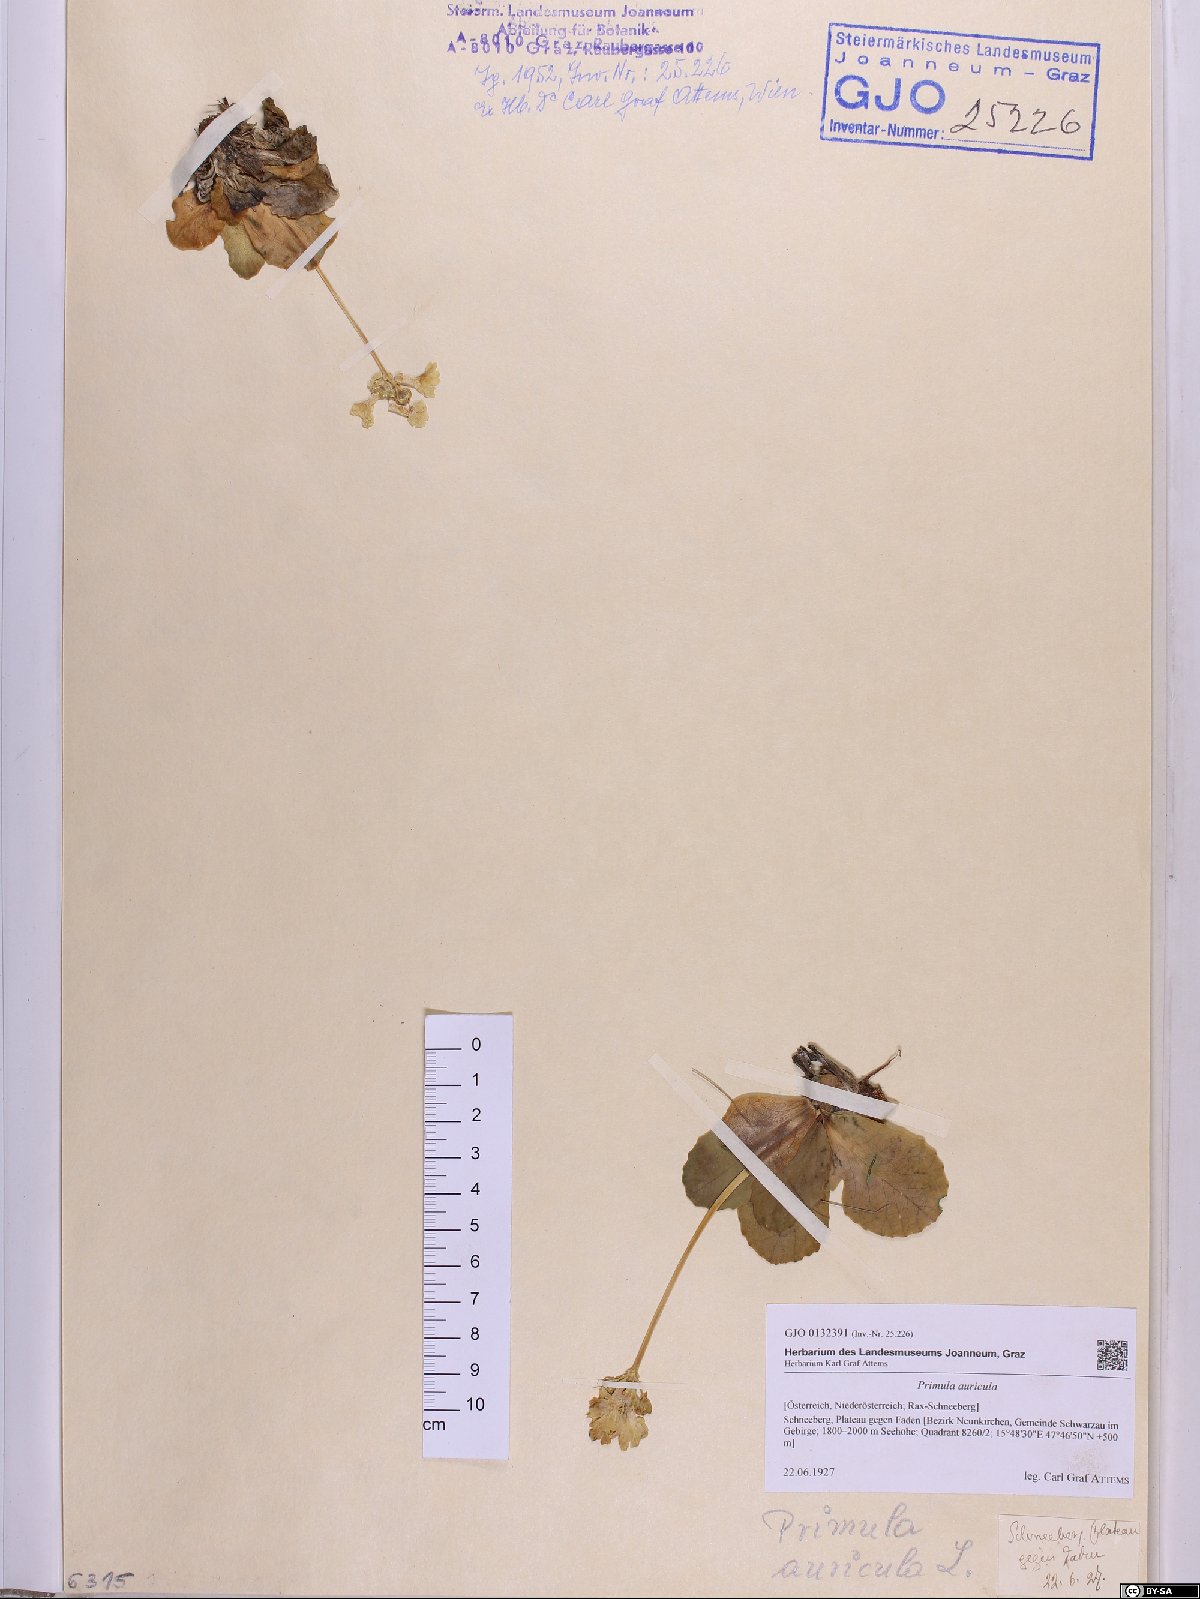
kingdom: Plantae
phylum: Tracheophyta
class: Magnoliopsida
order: Ericales
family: Primulaceae
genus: Primula
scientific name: Primula auricula
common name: Auricula
